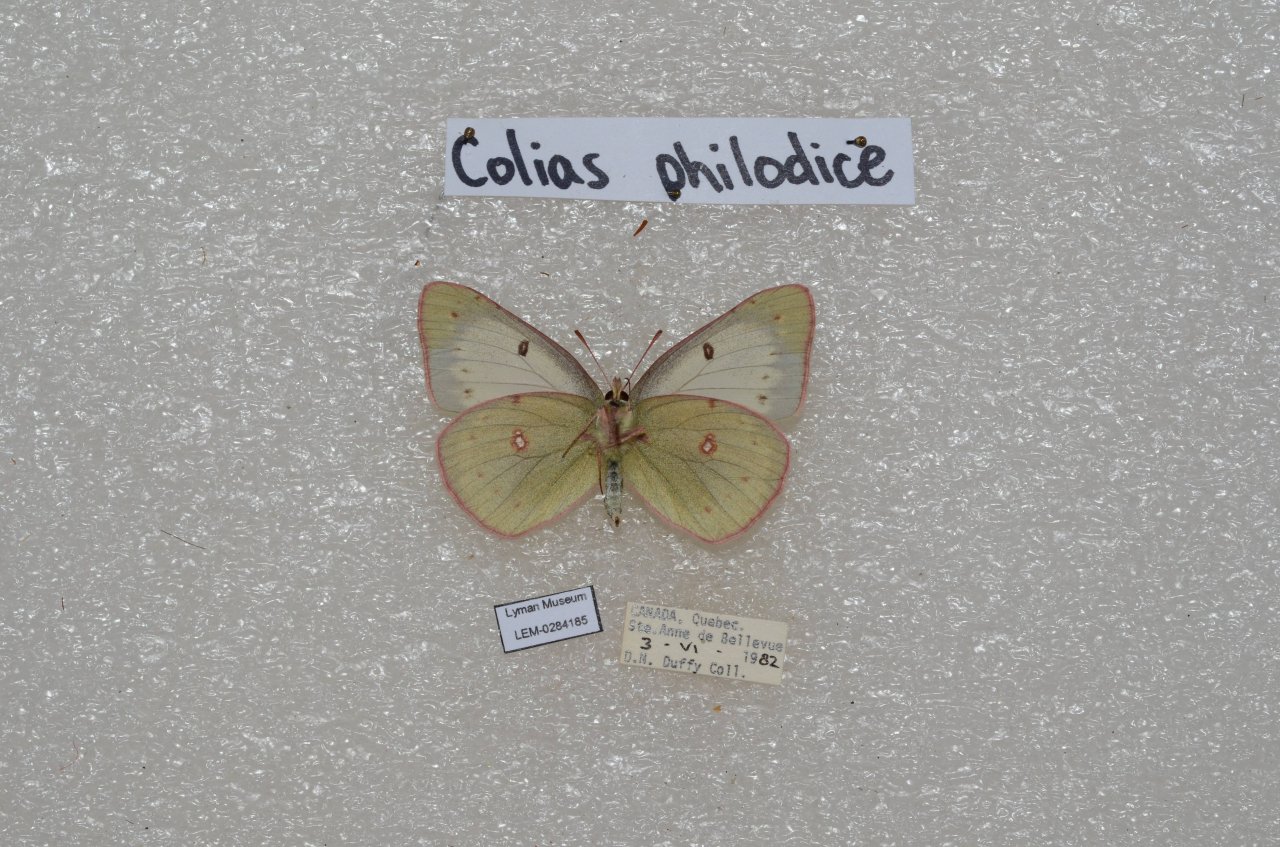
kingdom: Animalia
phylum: Arthropoda
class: Insecta
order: Lepidoptera
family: Pieridae
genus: Colias
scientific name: Colias philodice
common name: Clouded Sulphur
